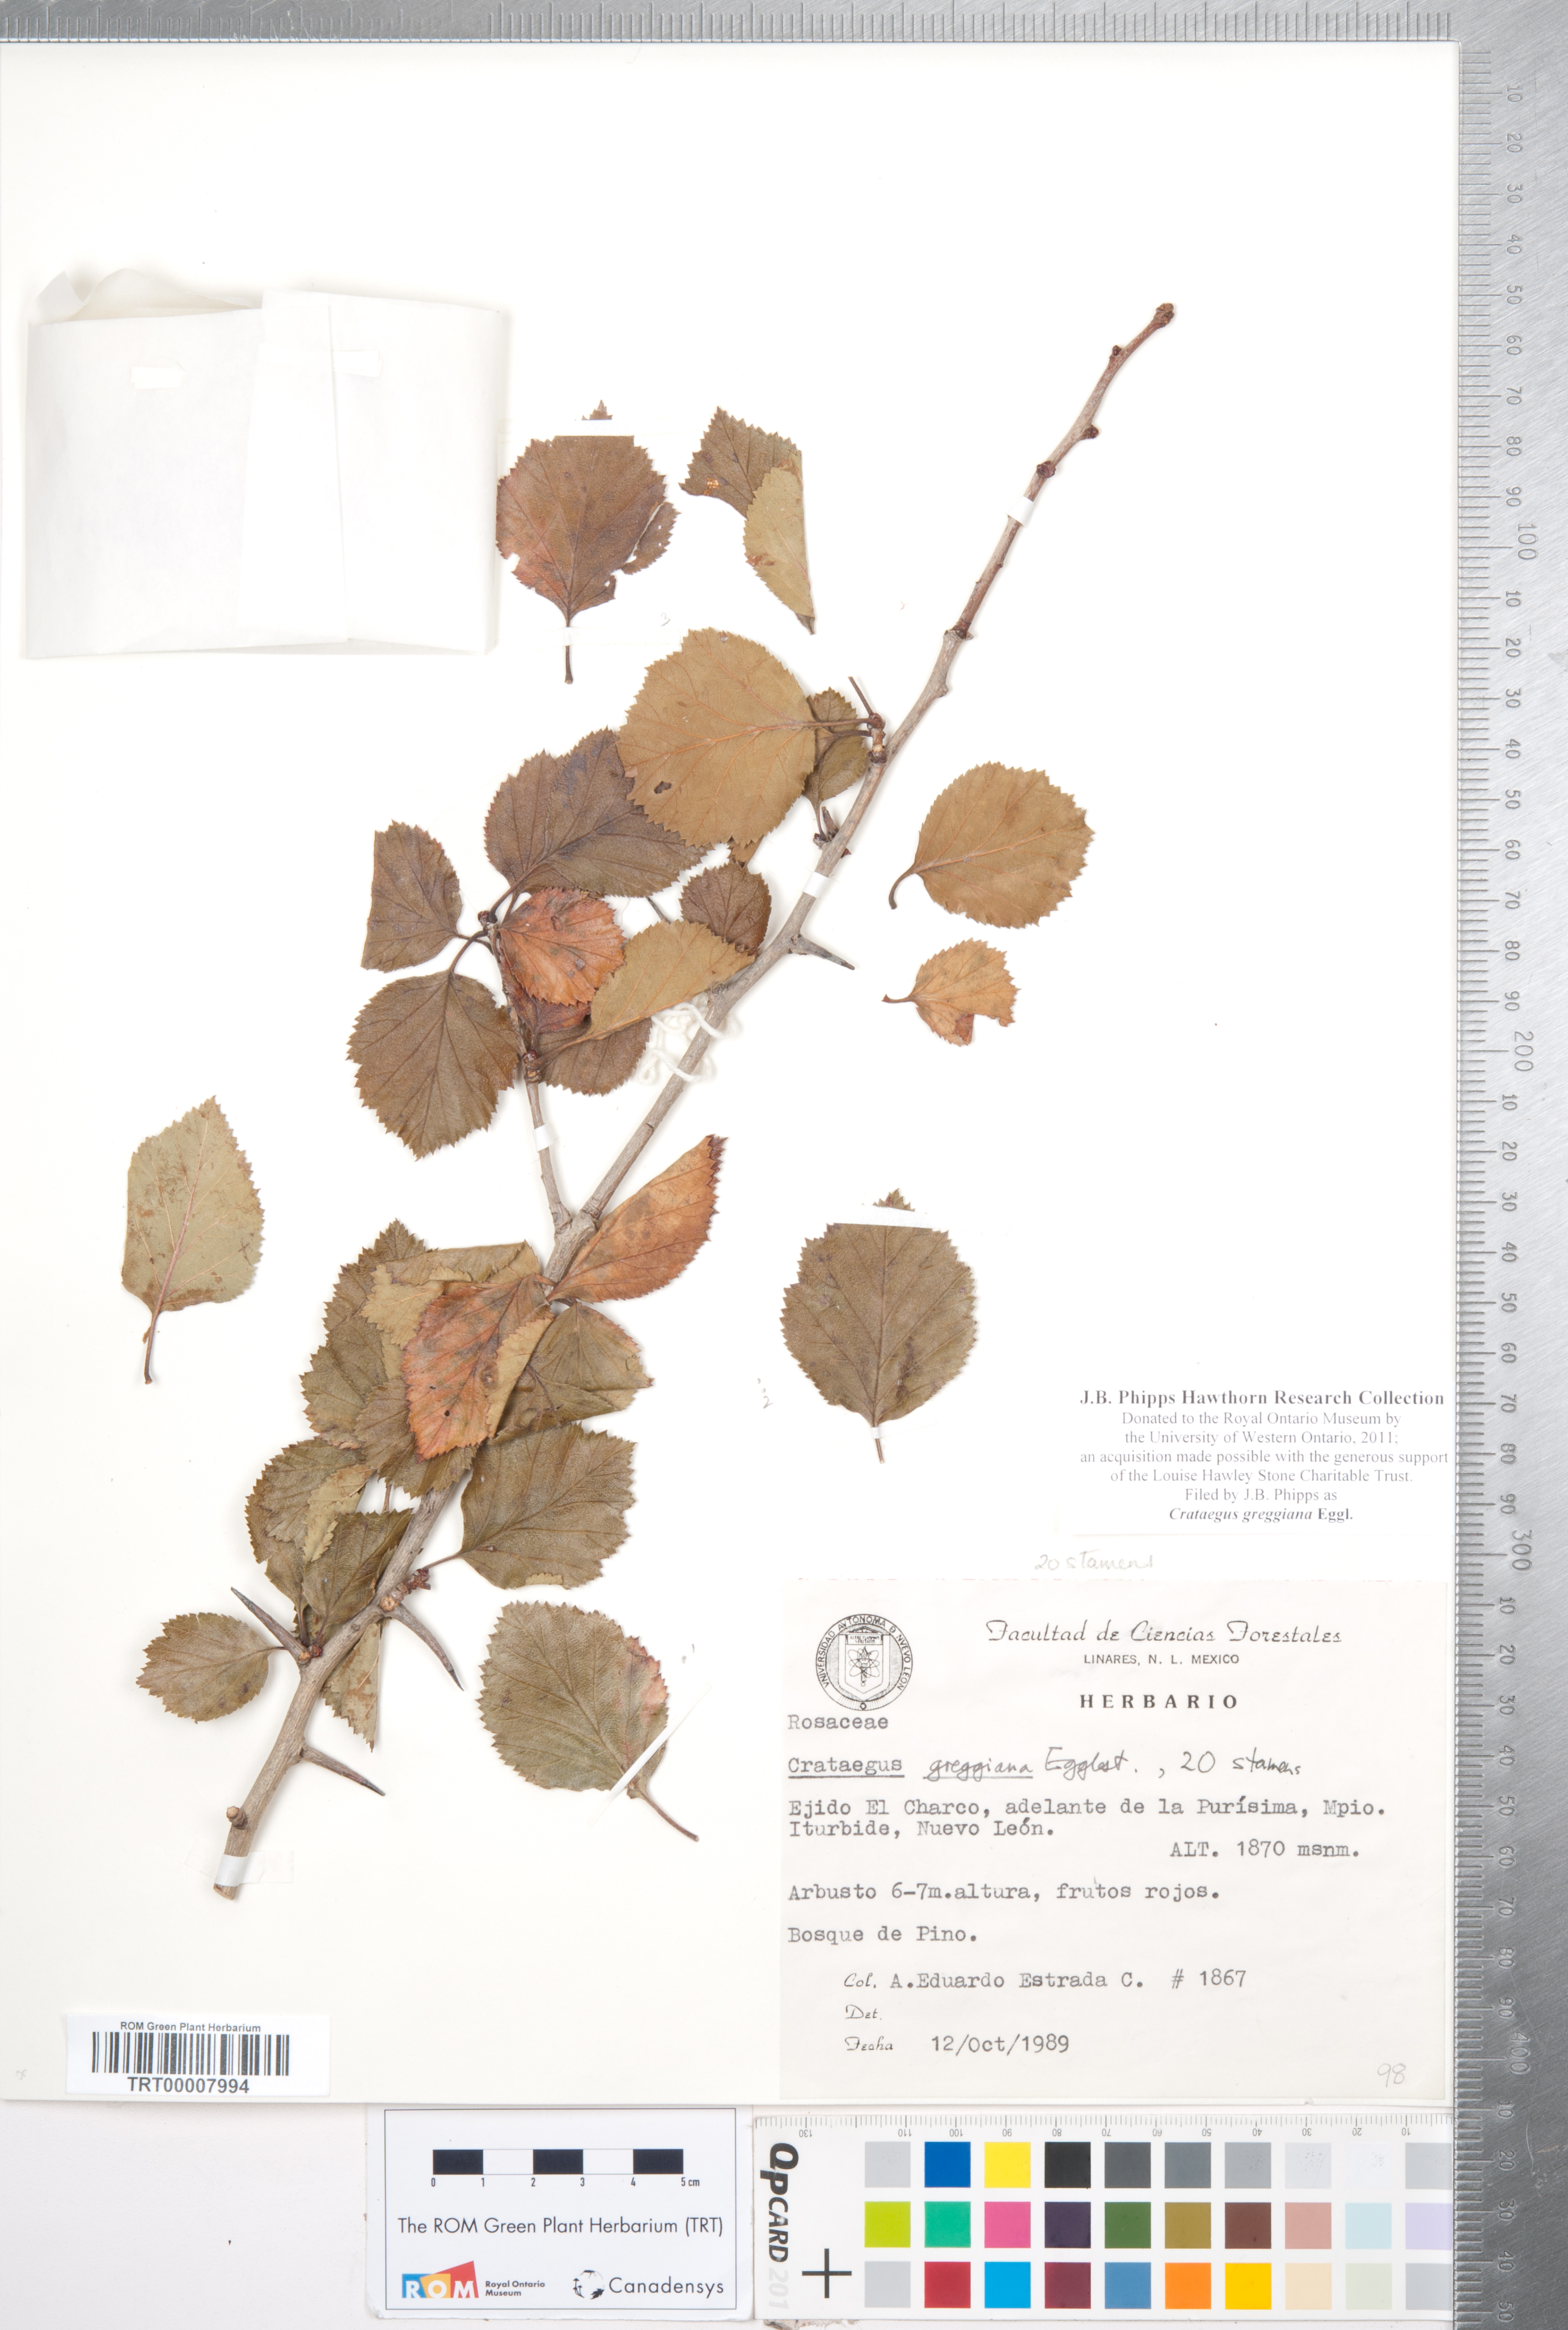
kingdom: Plantae
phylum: Tracheophyta
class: Magnoliopsida
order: Rosales
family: Rosaceae
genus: Crataegus
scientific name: Crataegus greggiana
